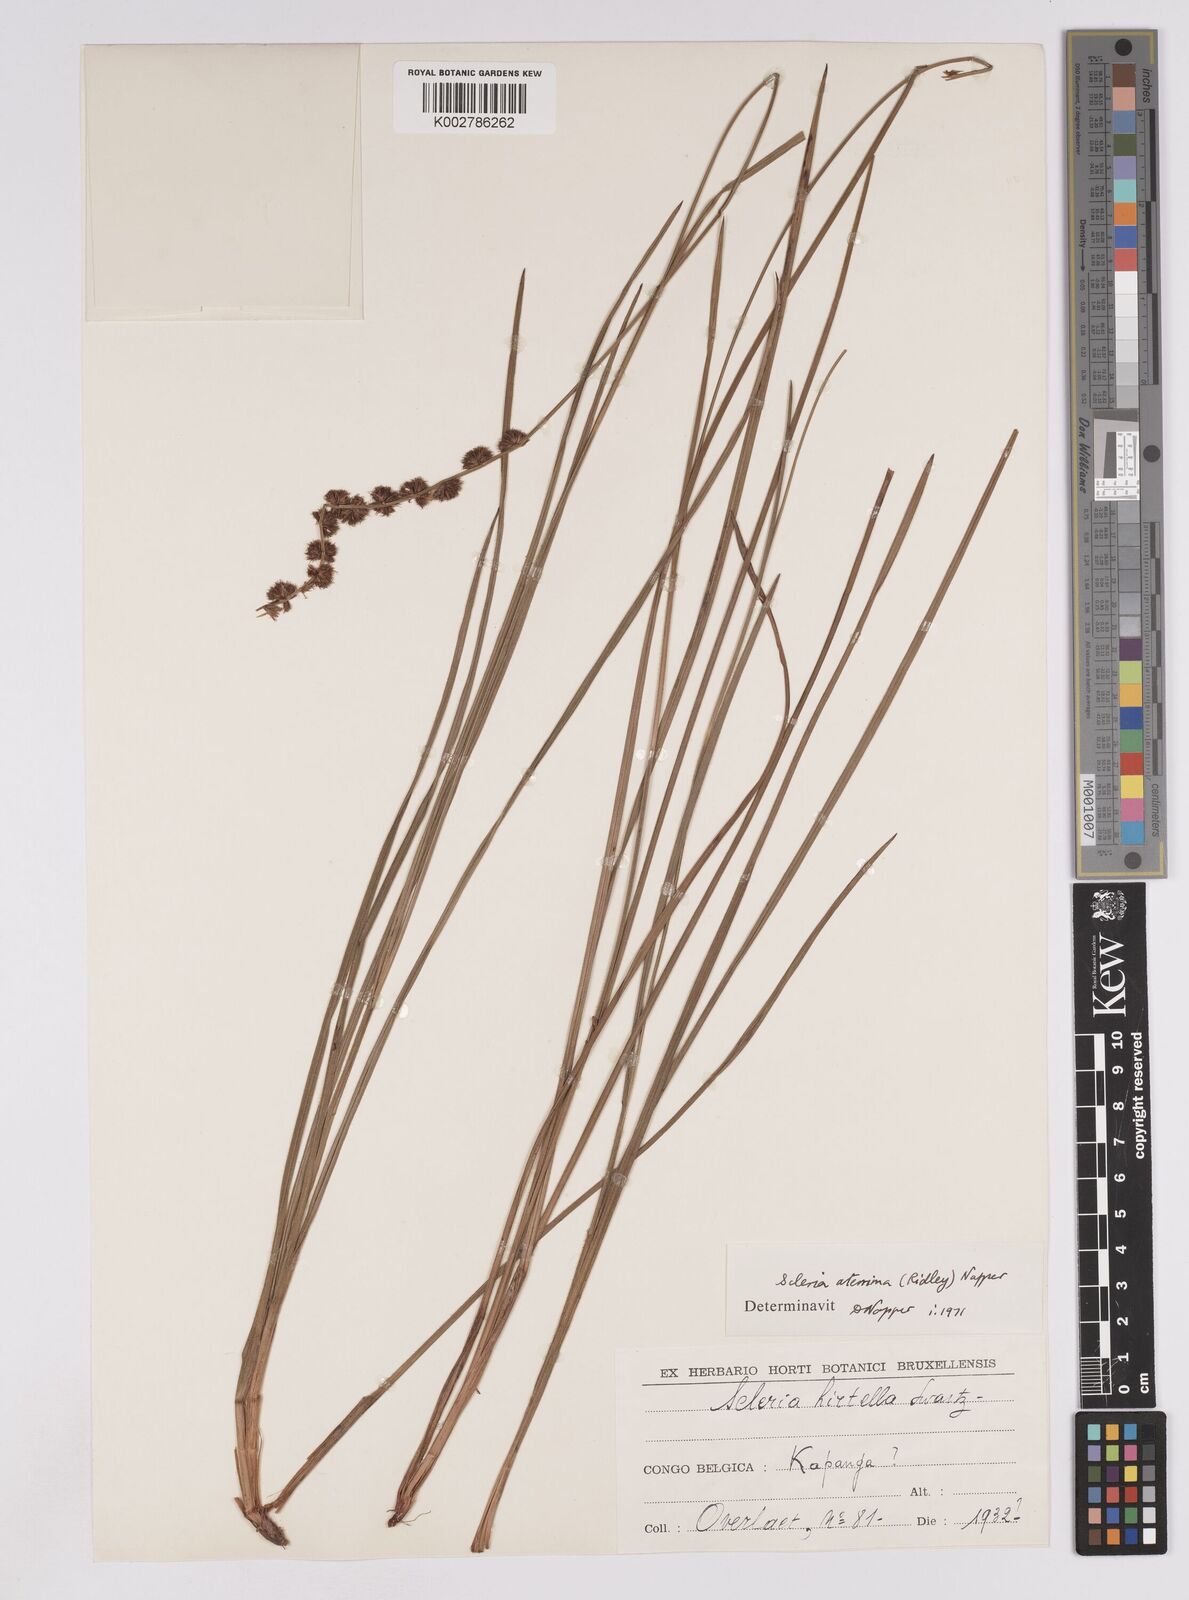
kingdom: Plantae
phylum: Tracheophyta
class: Liliopsida
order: Poales
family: Cyperaceae
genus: Scleria
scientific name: Scleria catophylla
